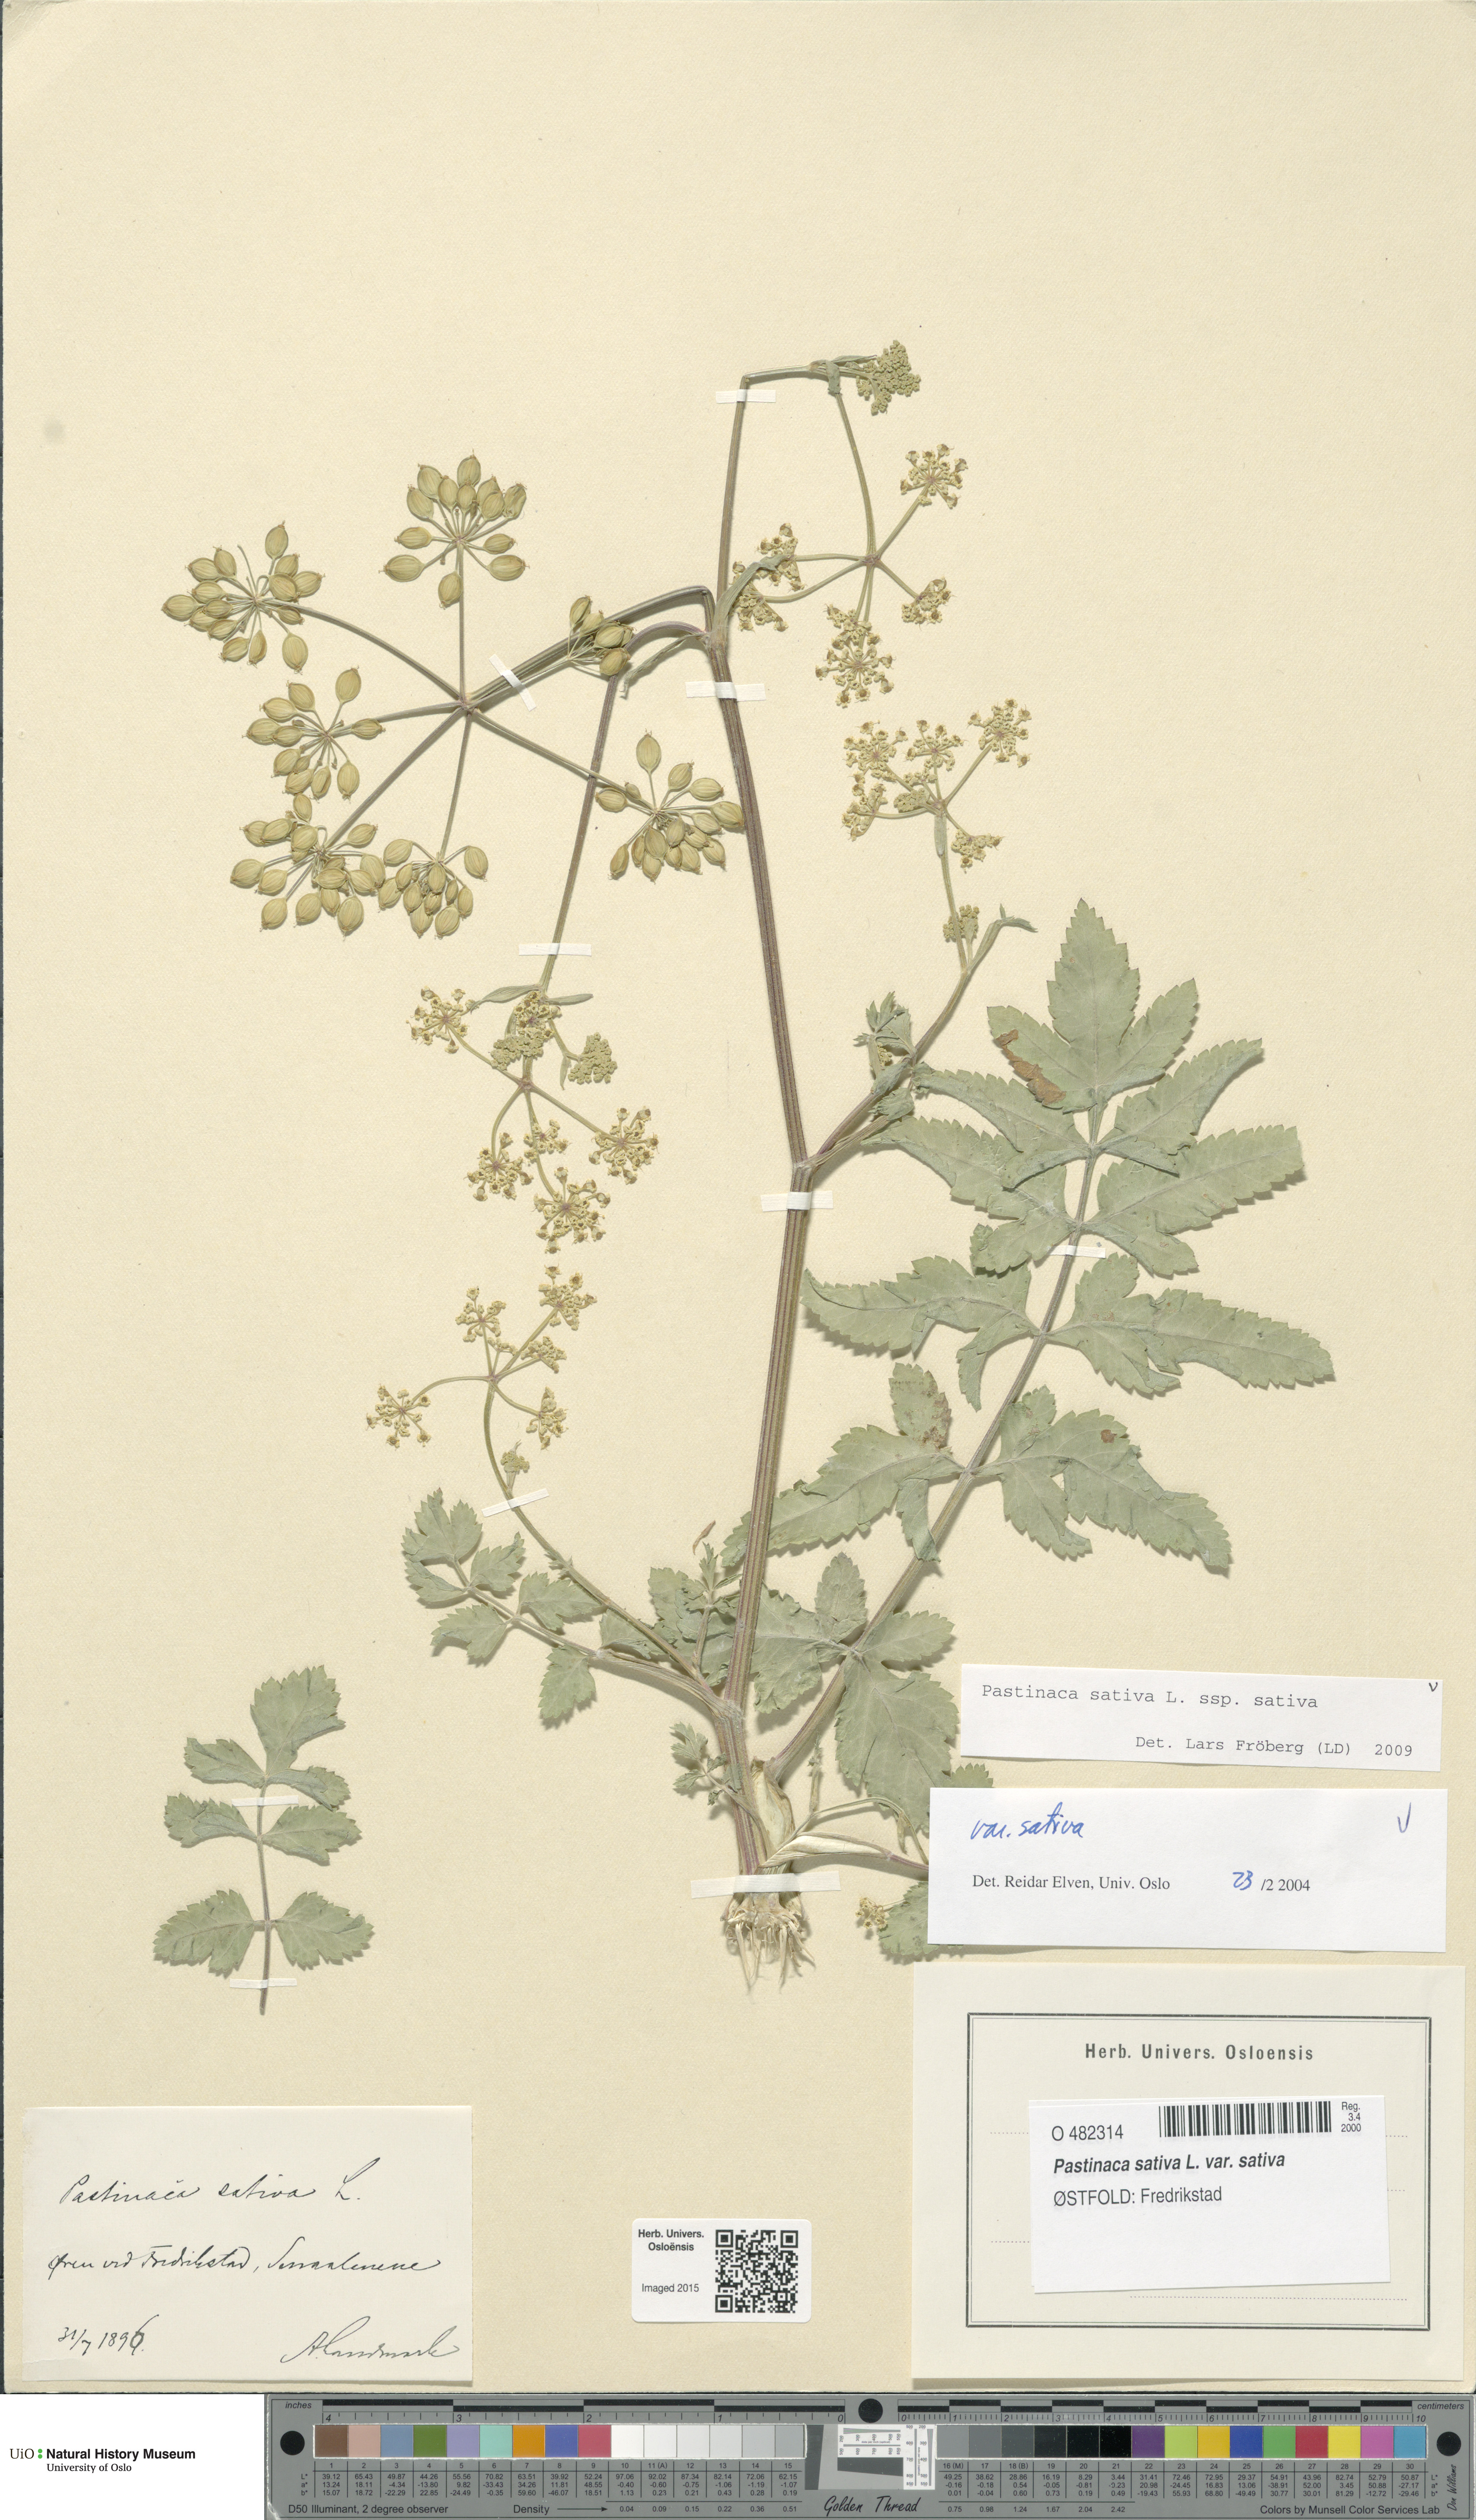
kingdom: Plantae
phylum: Tracheophyta
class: Magnoliopsida
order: Apiales
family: Apiaceae
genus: Pastinaca
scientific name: Pastinaca sativa
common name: Wild parsnip
